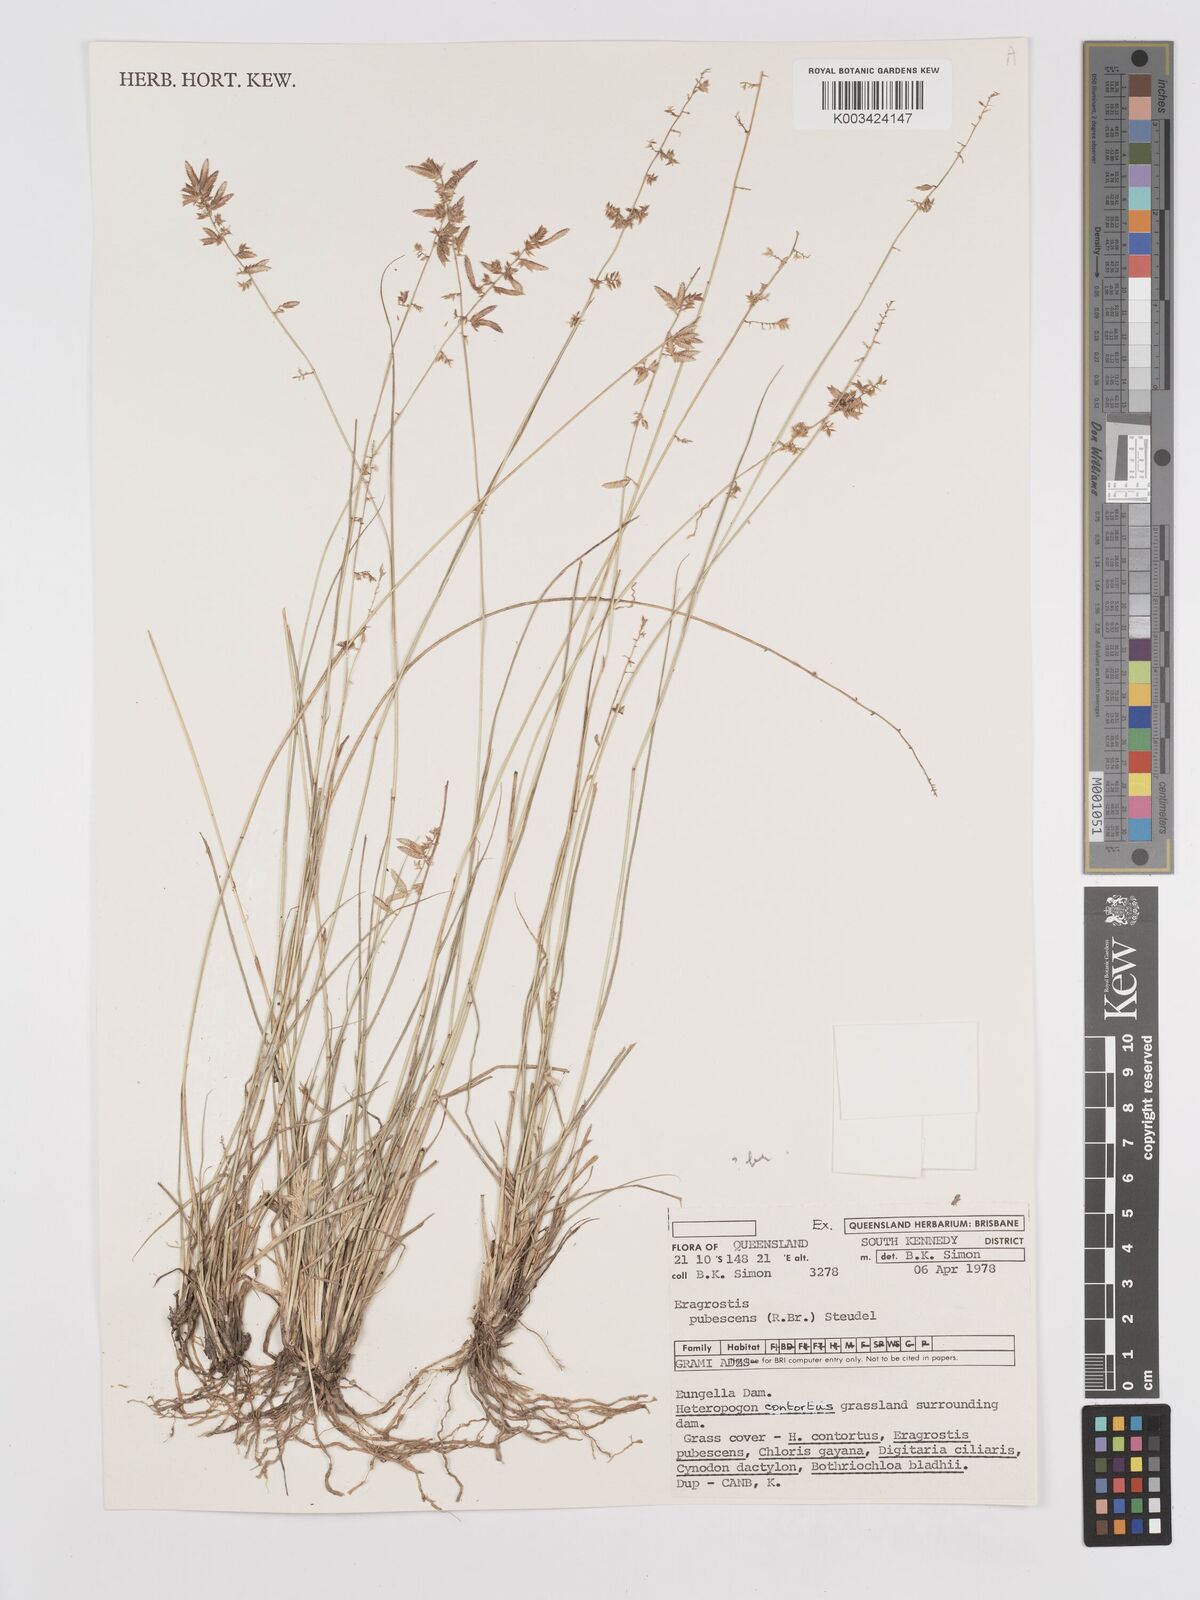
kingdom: Plantae
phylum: Tracheophyta
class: Liliopsida
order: Poales
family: Poaceae
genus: Eragrostis
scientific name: Eragrostis brownii
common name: Lovegrass
